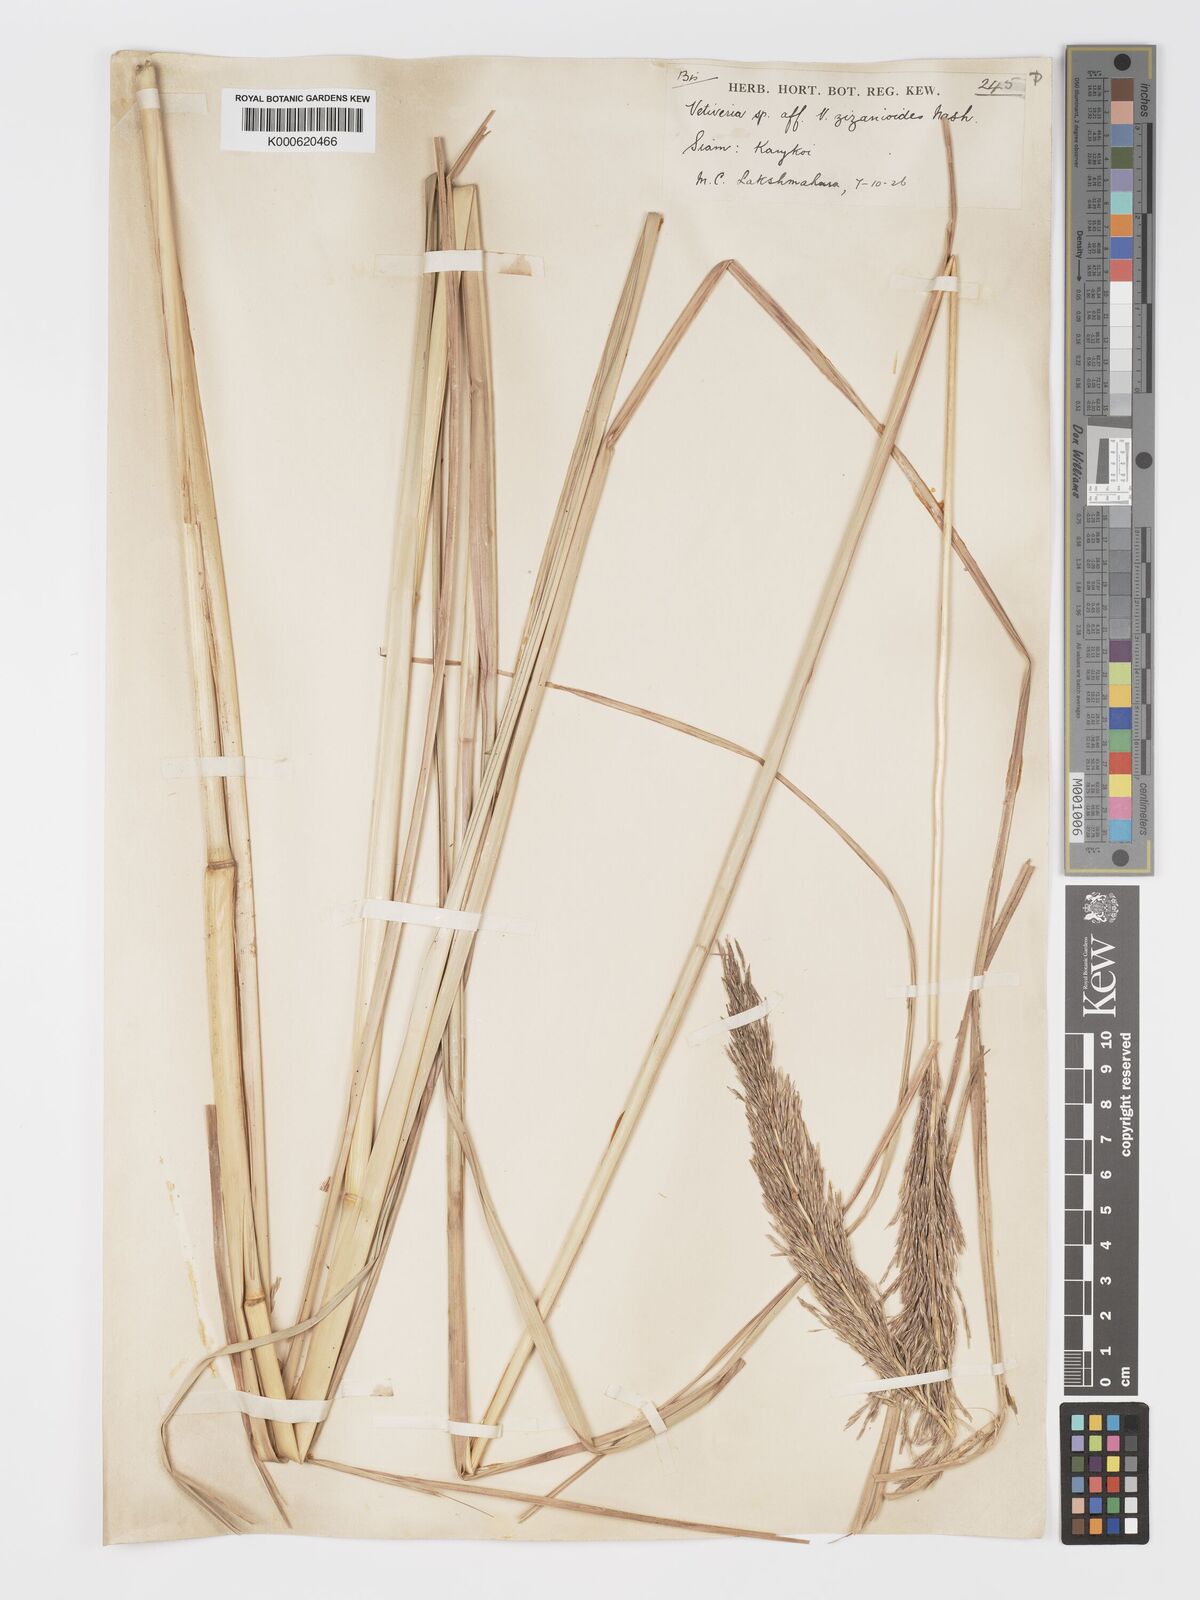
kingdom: Plantae
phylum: Tracheophyta
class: Liliopsida
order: Poales
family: Poaceae
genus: Chrysopogon
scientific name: Chrysopogon zizanioides
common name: False beardgrass
